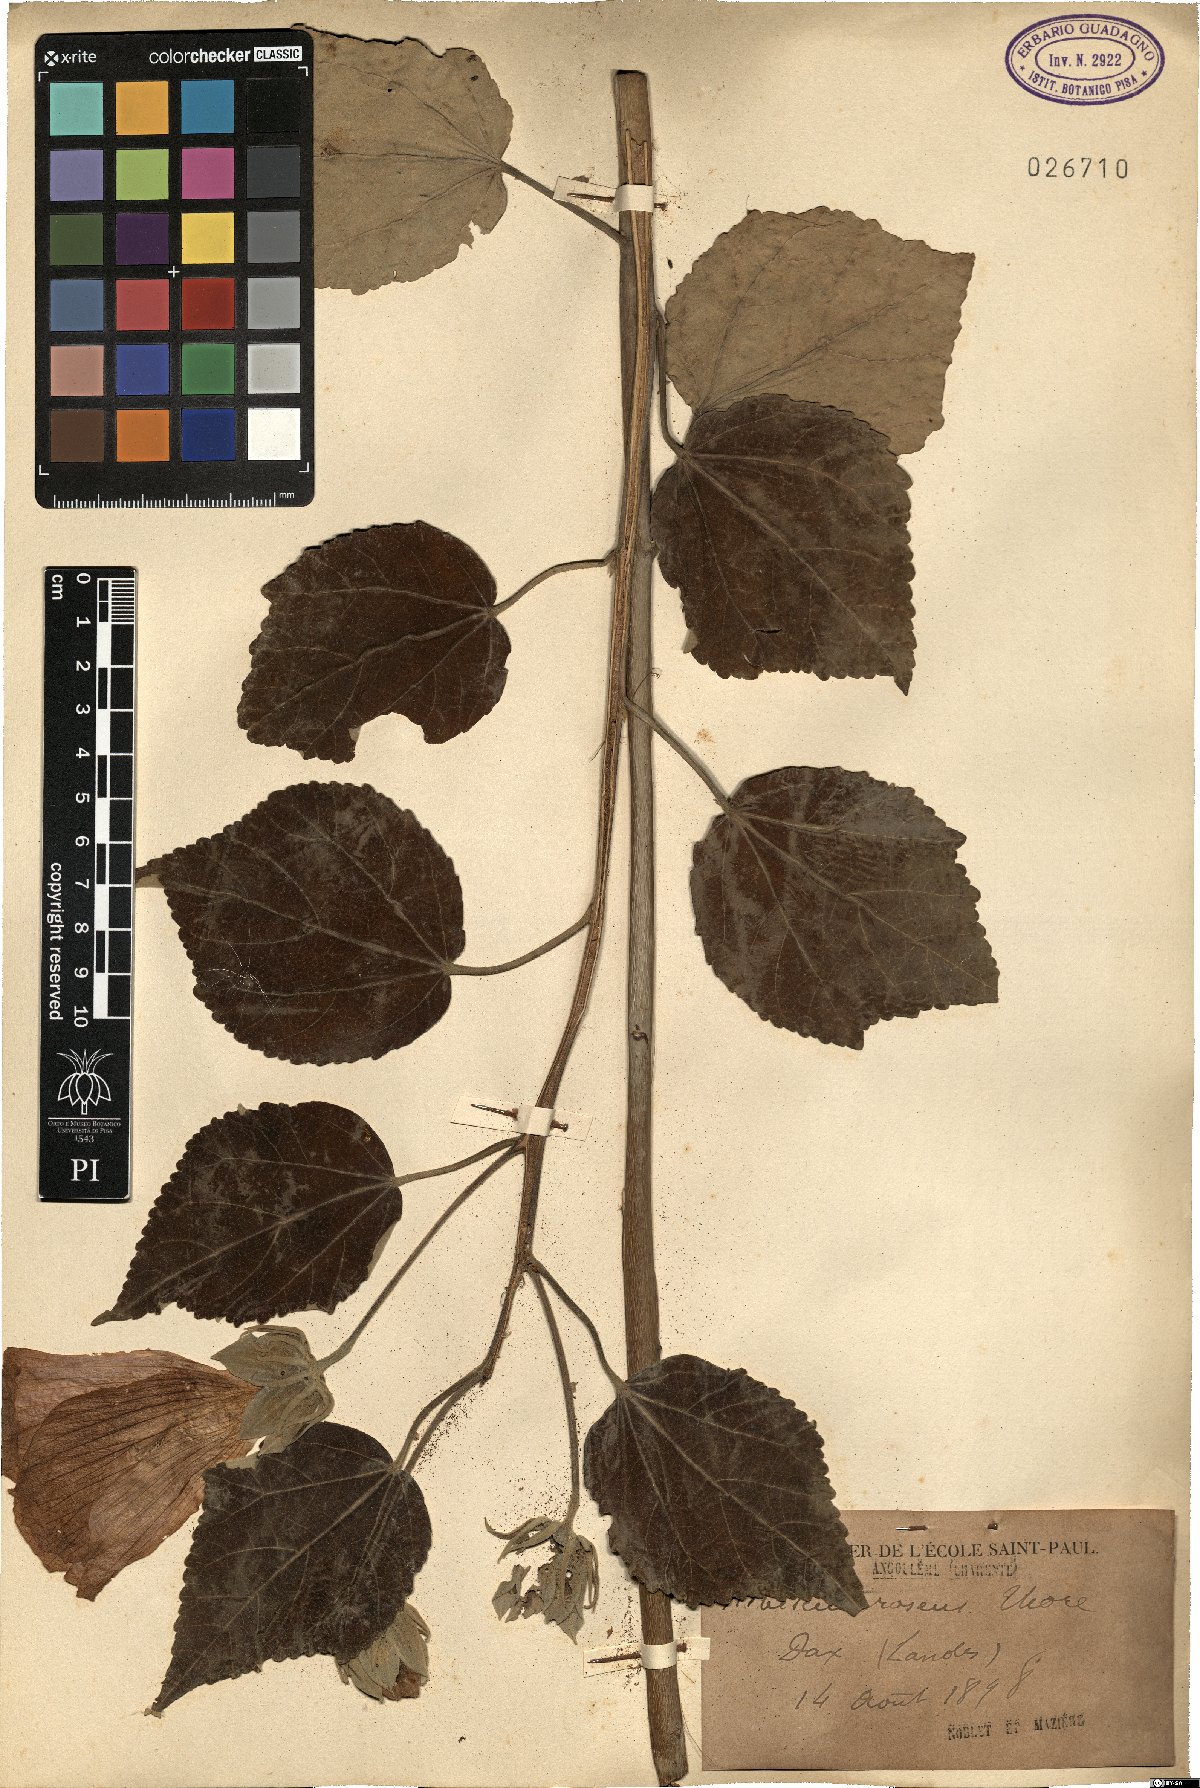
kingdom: Plantae
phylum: Tracheophyta
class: Magnoliopsida
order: Malvales
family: Malvaceae
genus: Hibiscus
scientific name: Hibiscus roseus
